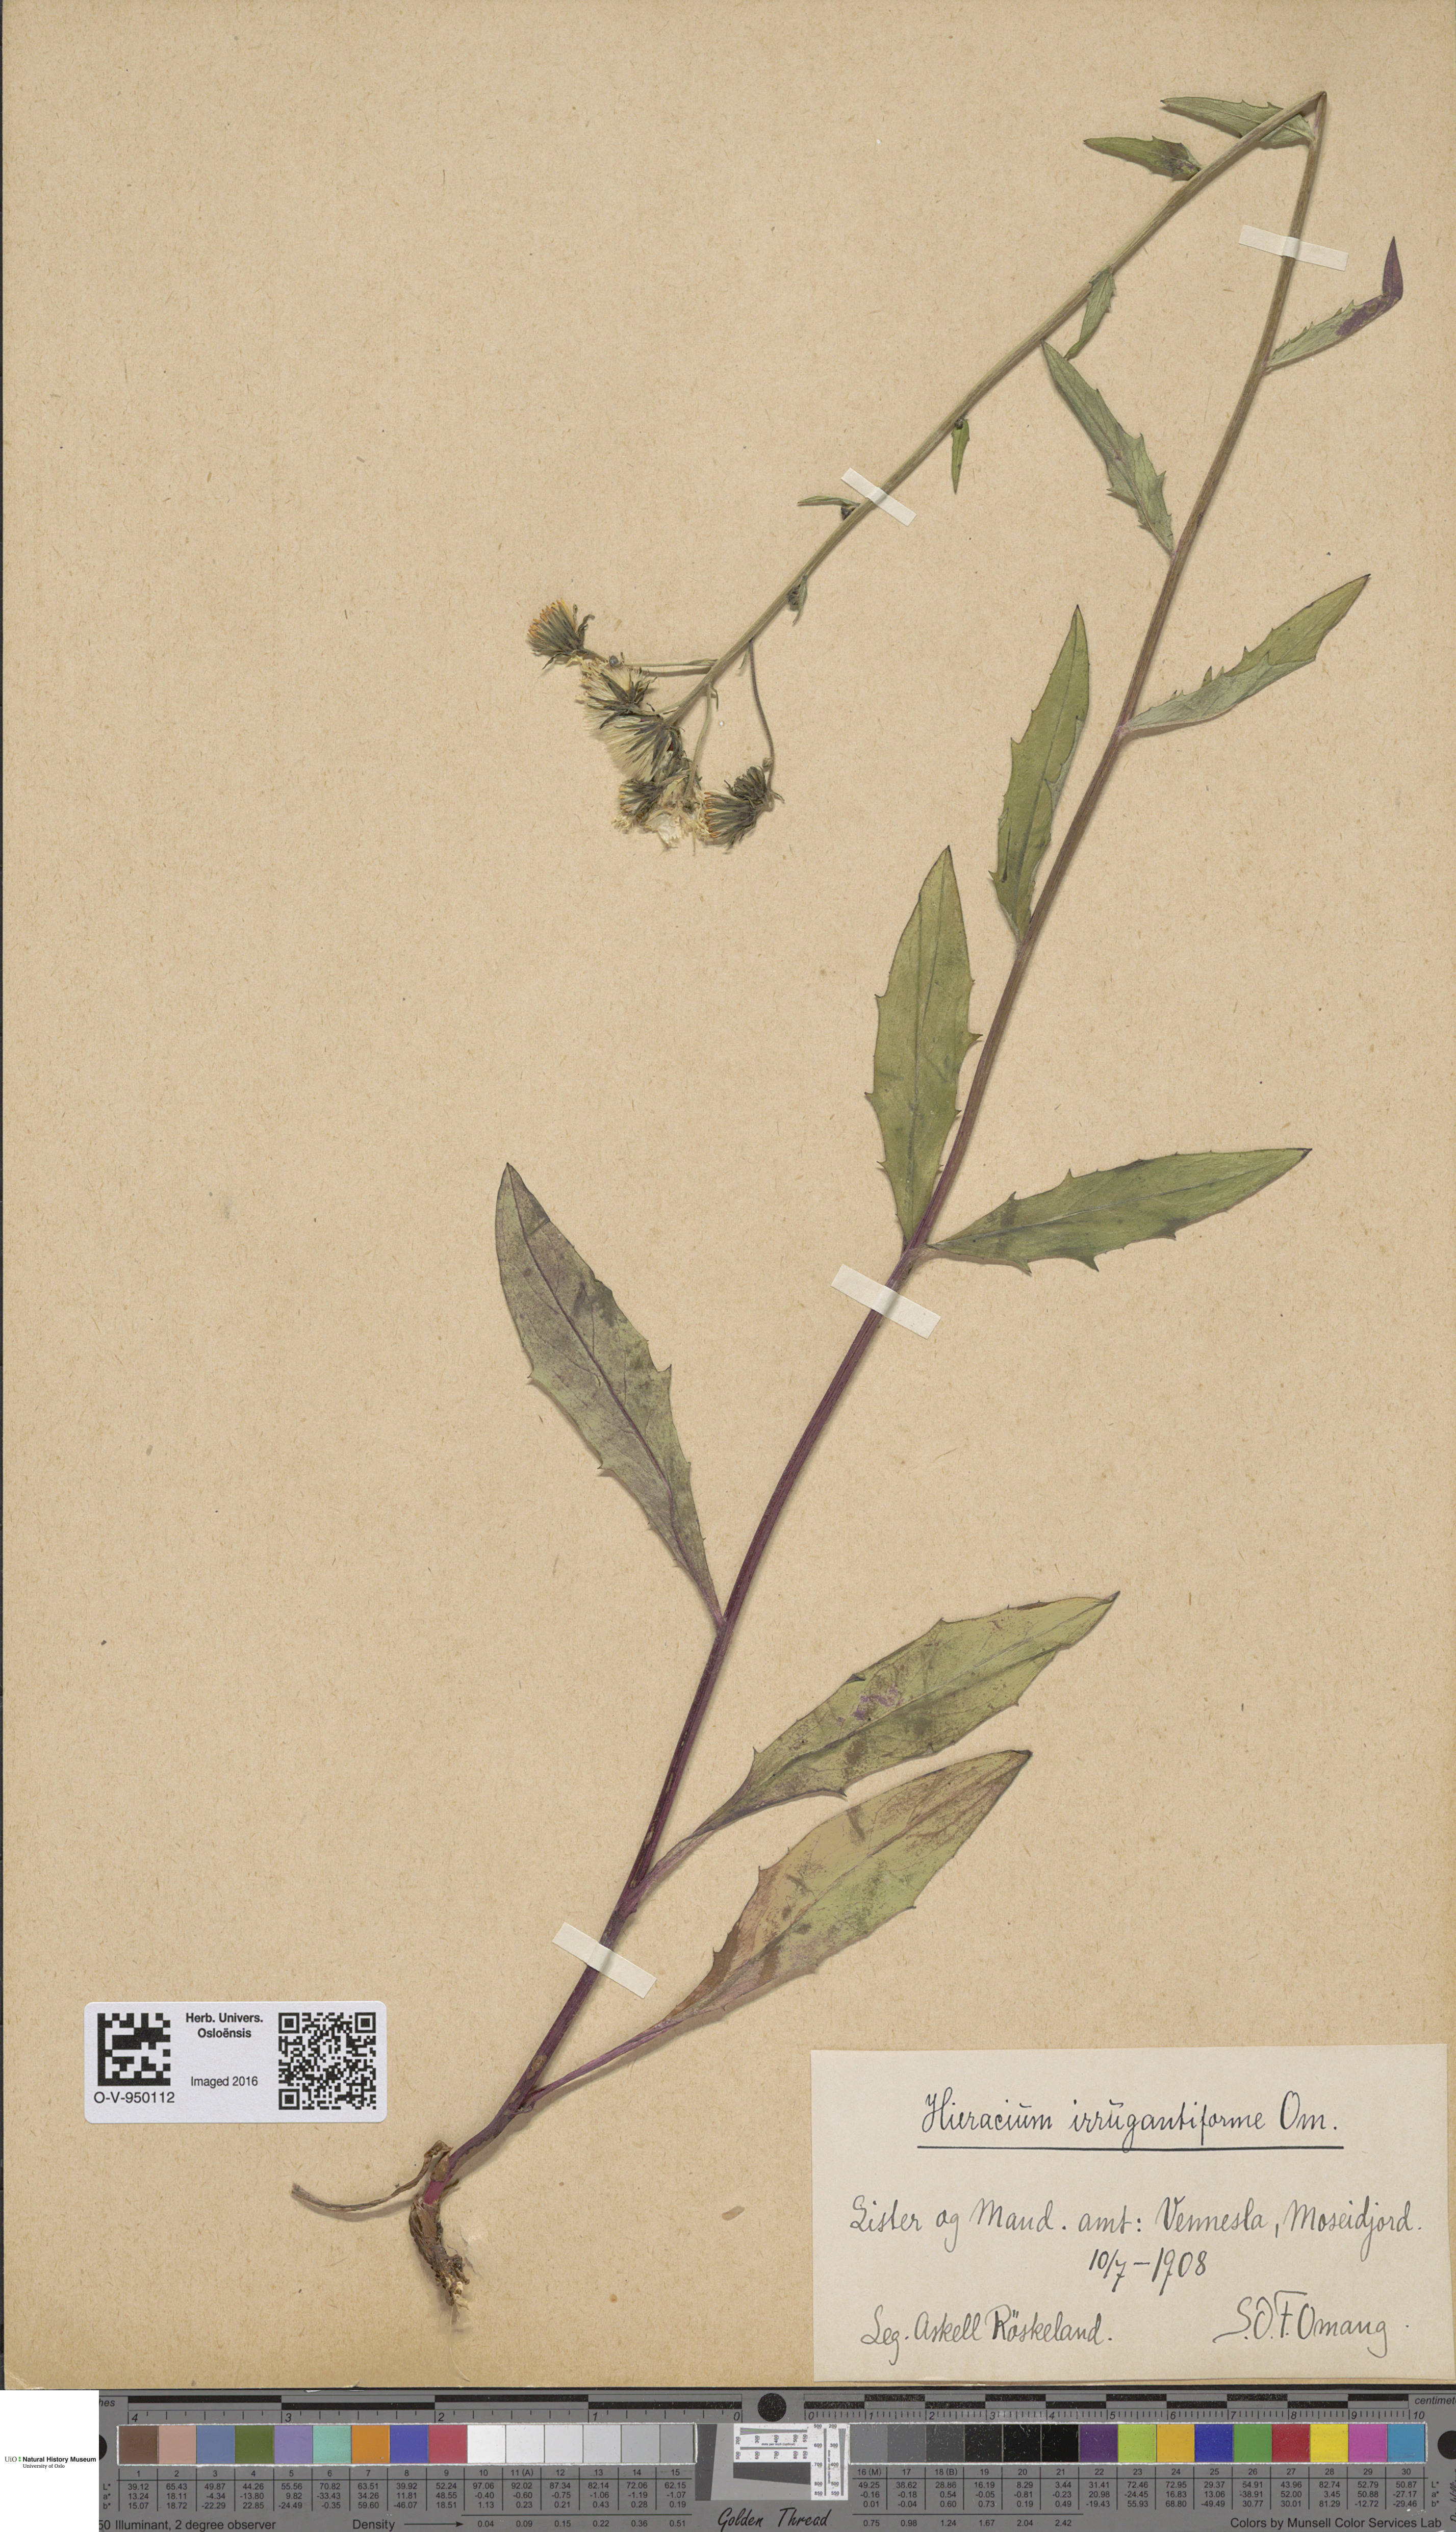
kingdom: Plantae
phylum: Tracheophyta
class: Magnoliopsida
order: Asterales
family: Asteraceae
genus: Hieracium
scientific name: Hieracium
